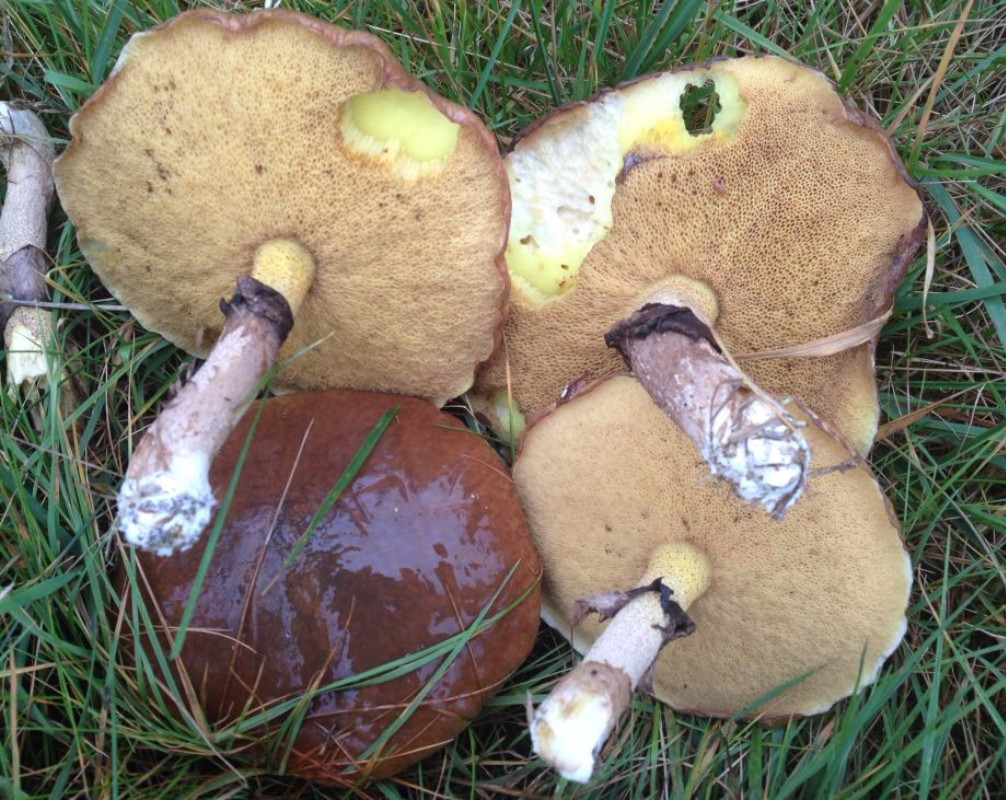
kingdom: Fungi
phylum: Basidiomycota
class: Agaricomycetes
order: Boletales
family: Suillaceae
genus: Suillus
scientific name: Suillus luteus
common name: brungul slimrørhat
